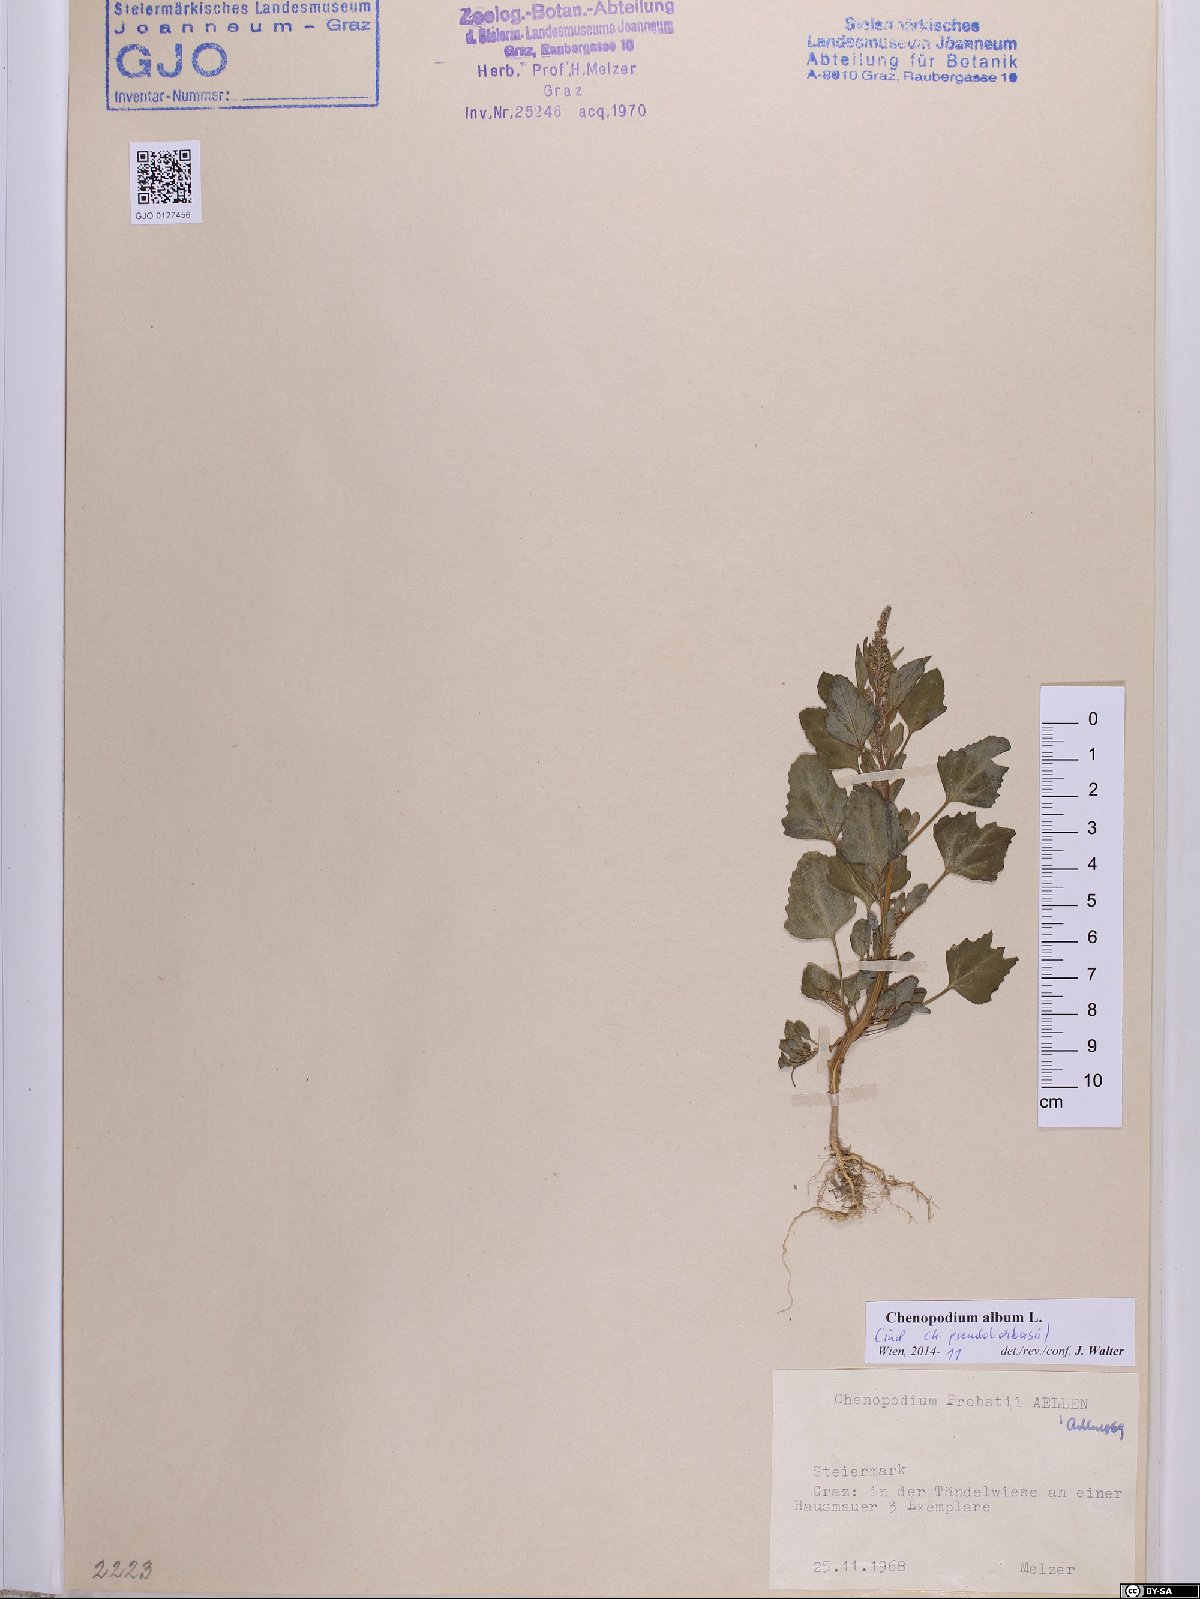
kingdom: Plantae
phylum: Tracheophyta
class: Magnoliopsida
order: Caryophyllales
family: Amaranthaceae
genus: Chenopodium
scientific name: Chenopodium album
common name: Fat-hen
